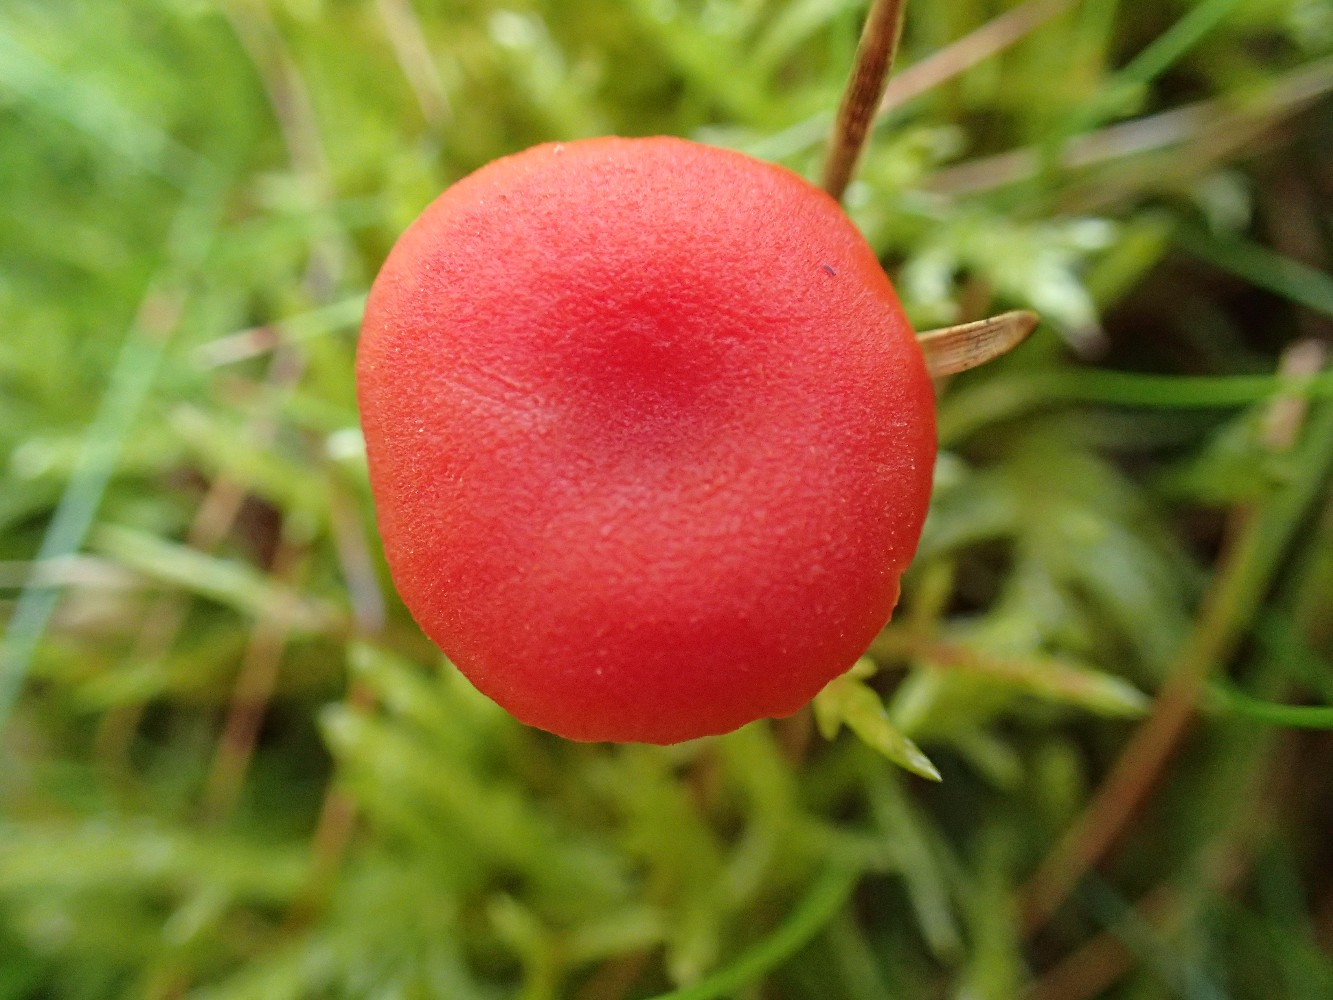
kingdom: Fungi
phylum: Basidiomycota
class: Agaricomycetes
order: Agaricales
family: Hygrophoraceae
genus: Hygrocybe
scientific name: Hygrocybe miniata
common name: mønje-vokshat
